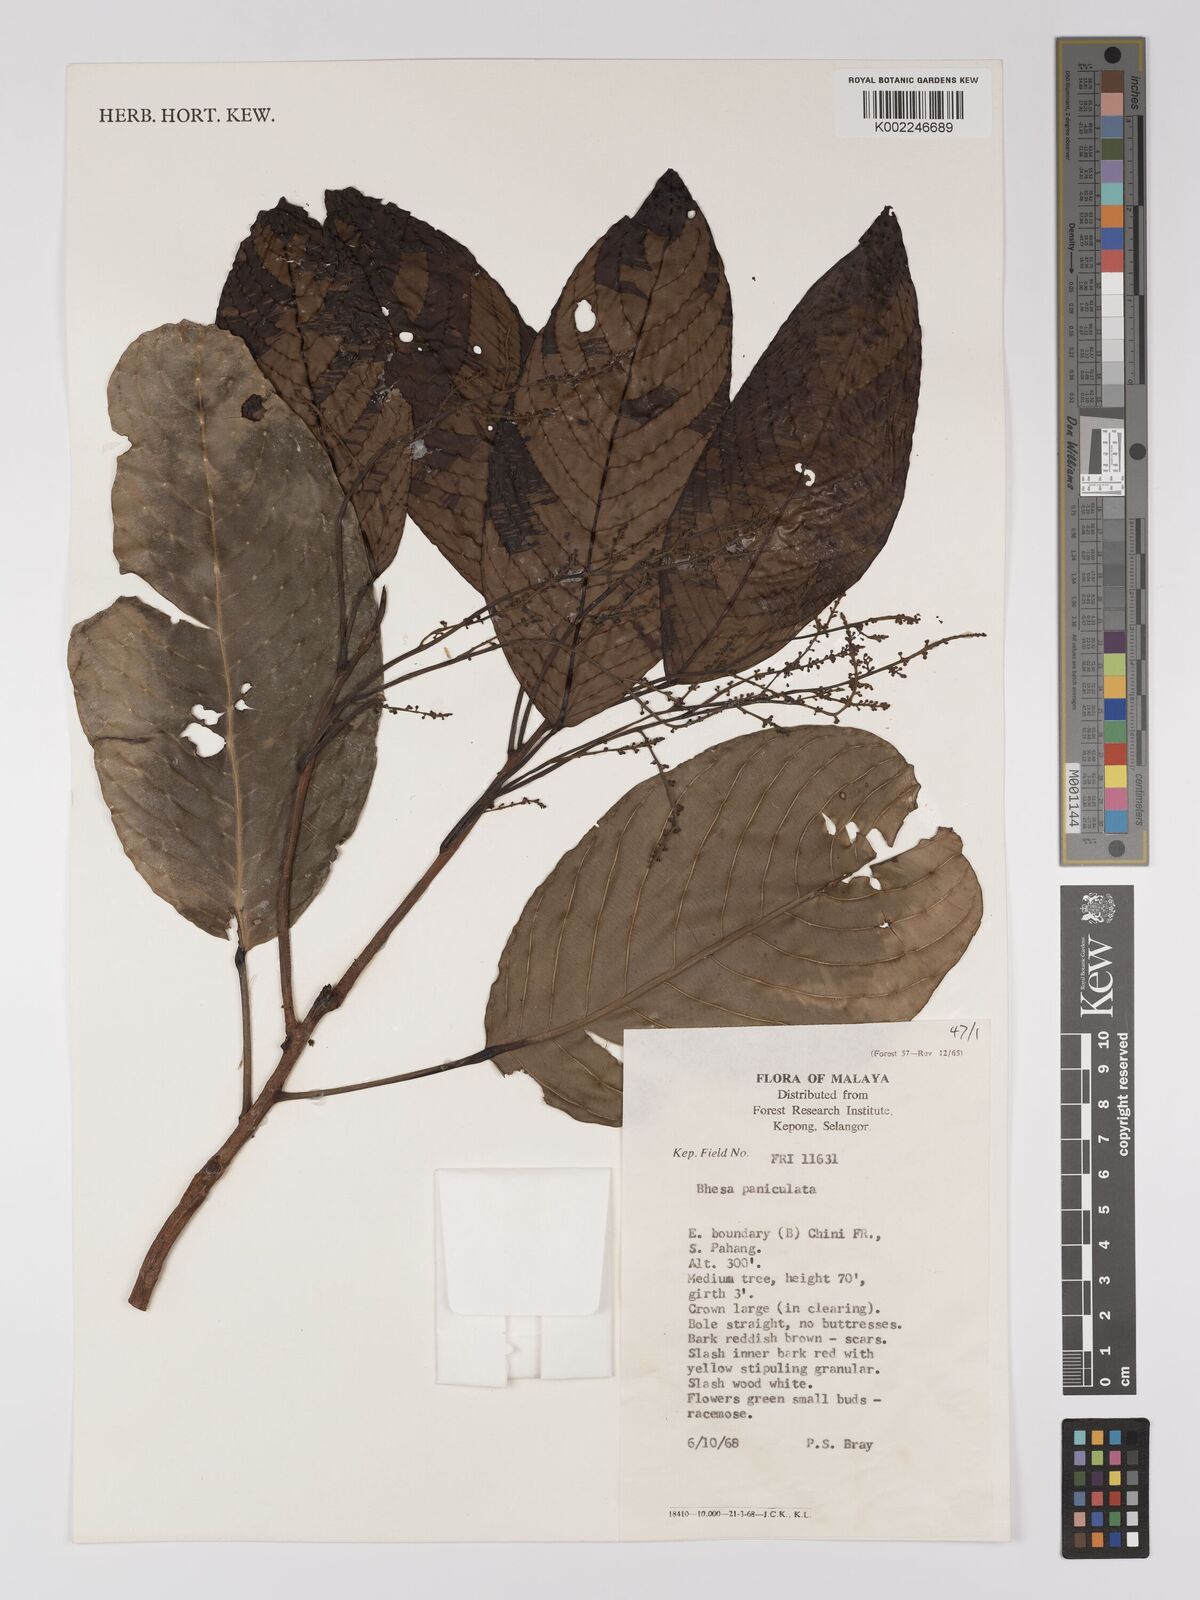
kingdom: Plantae
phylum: Tracheophyta
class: Magnoliopsida
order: Malpighiales
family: Centroplacaceae
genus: Bhesa
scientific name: Bhesa paniculata
